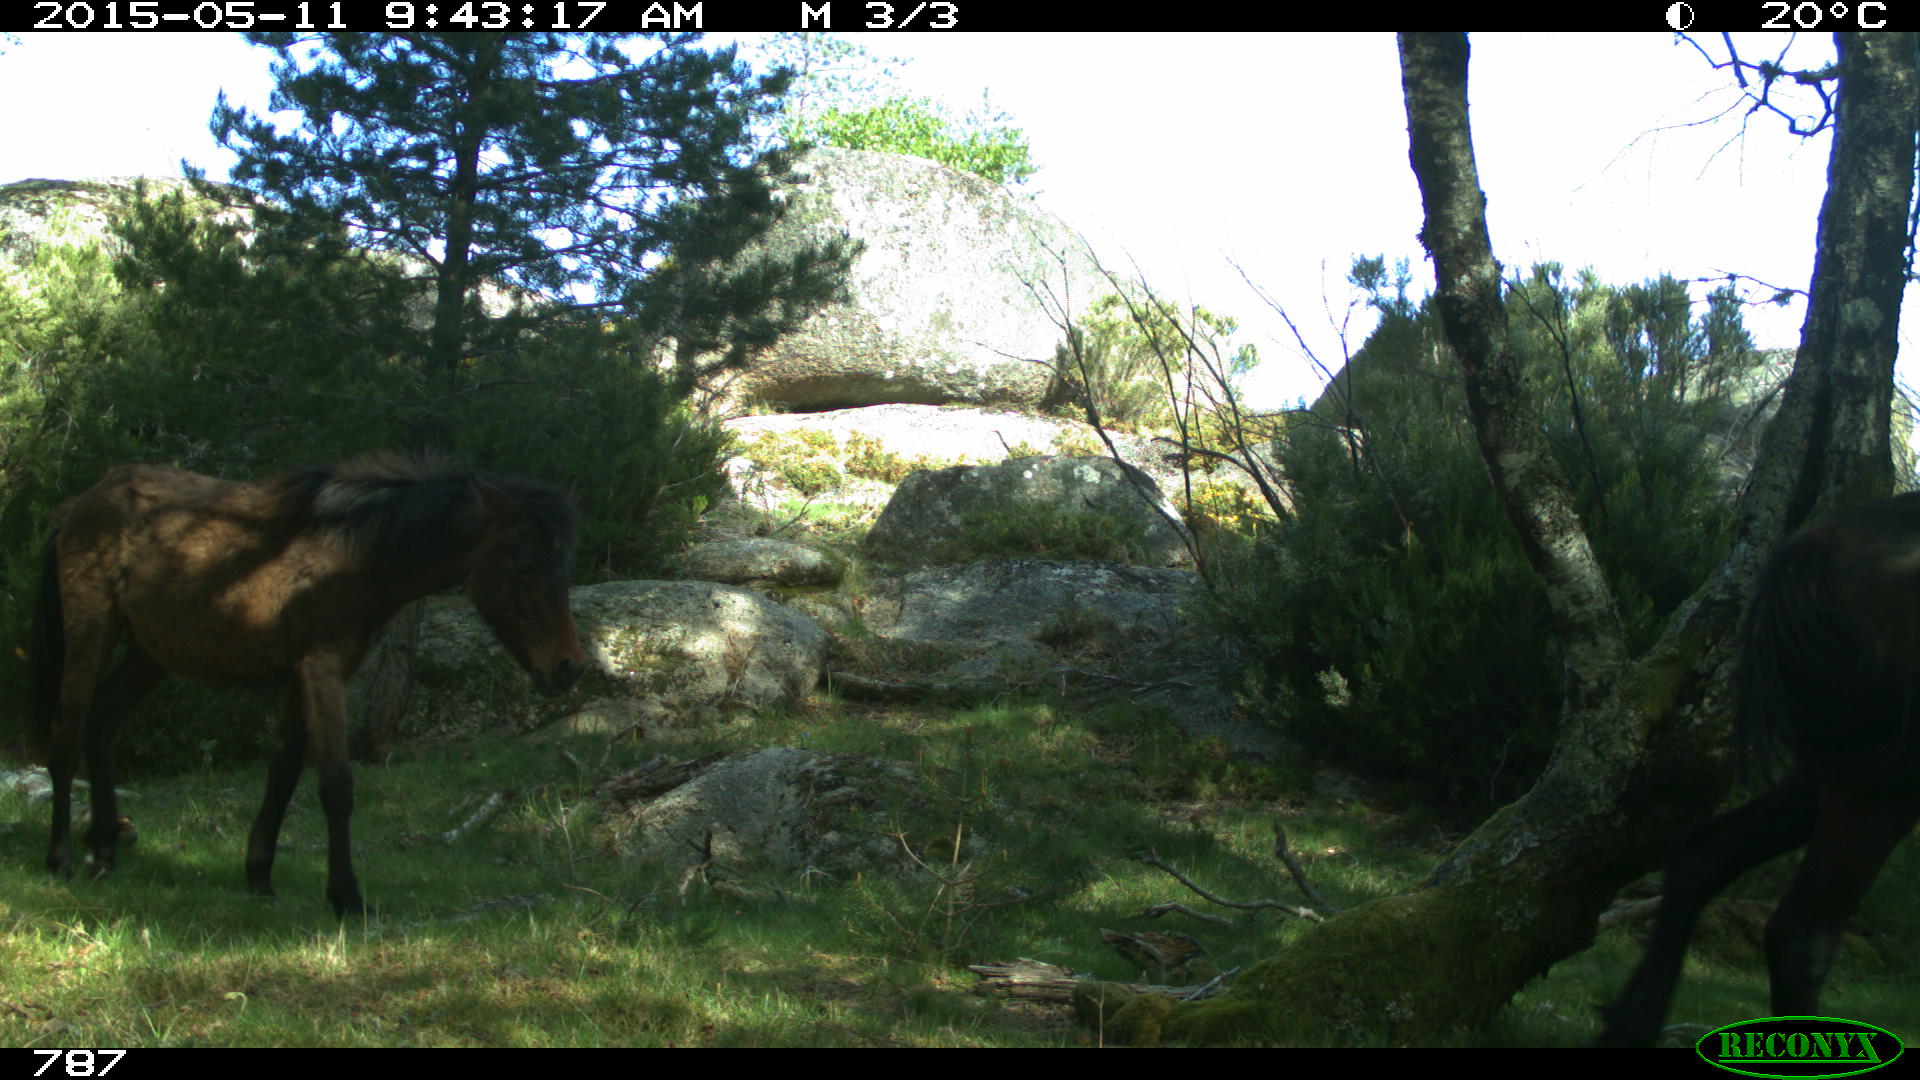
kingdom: Animalia
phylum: Chordata
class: Mammalia
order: Perissodactyla
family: Equidae
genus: Equus
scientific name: Equus caballus
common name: Horse
